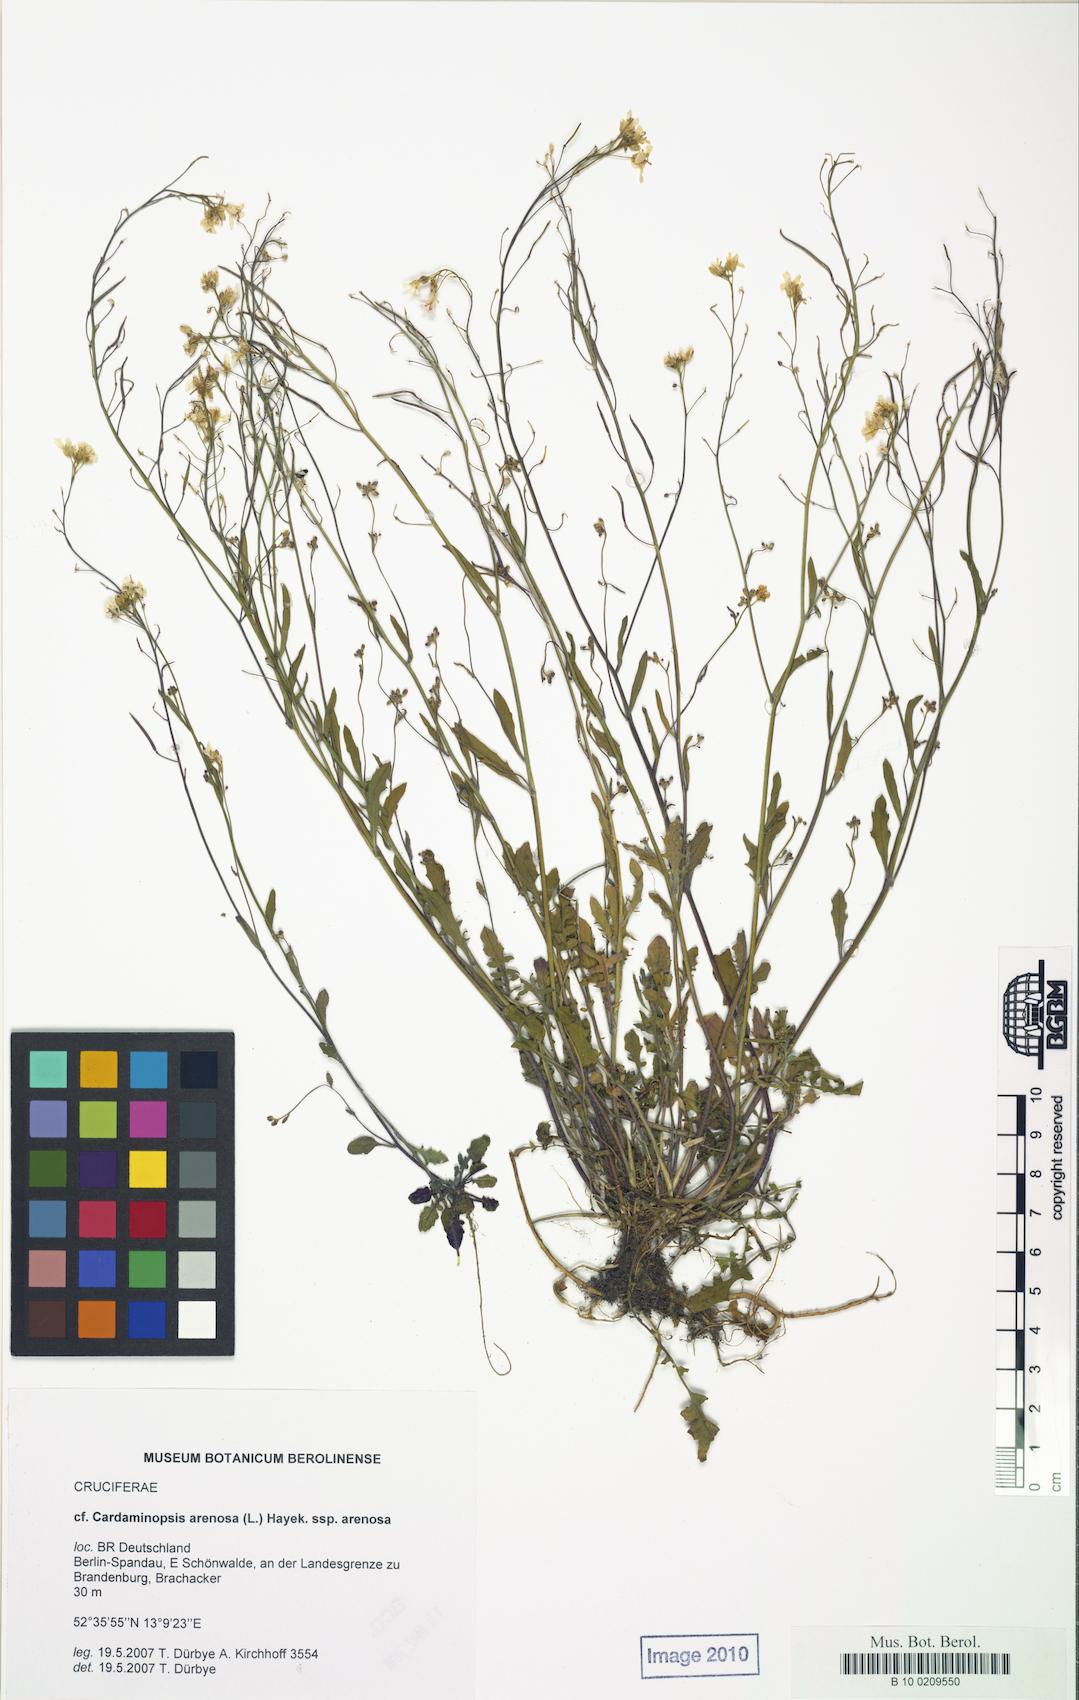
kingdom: Plantae
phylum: Tracheophyta
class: Magnoliopsida
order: Brassicales
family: Brassicaceae
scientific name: Brassicaceae
